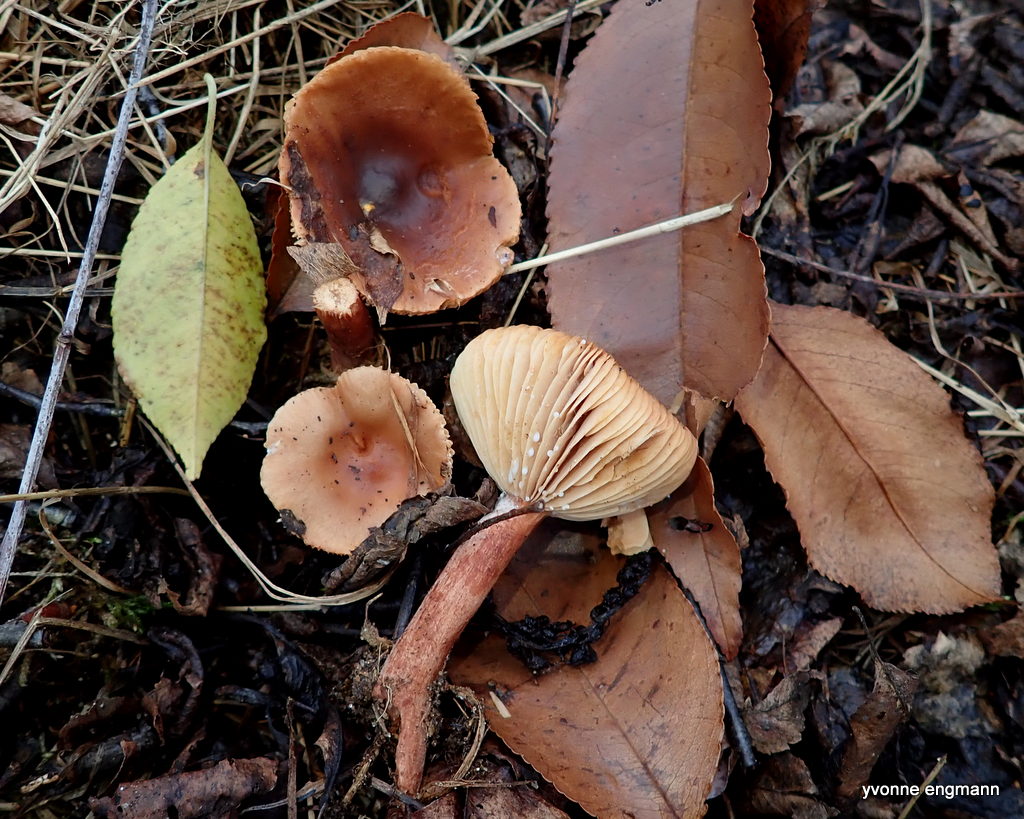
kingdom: Fungi
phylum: Basidiomycota
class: Agaricomycetes
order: Russulales
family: Russulaceae
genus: Lactarius
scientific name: Lactarius rufus
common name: rødbrun mælkehat
